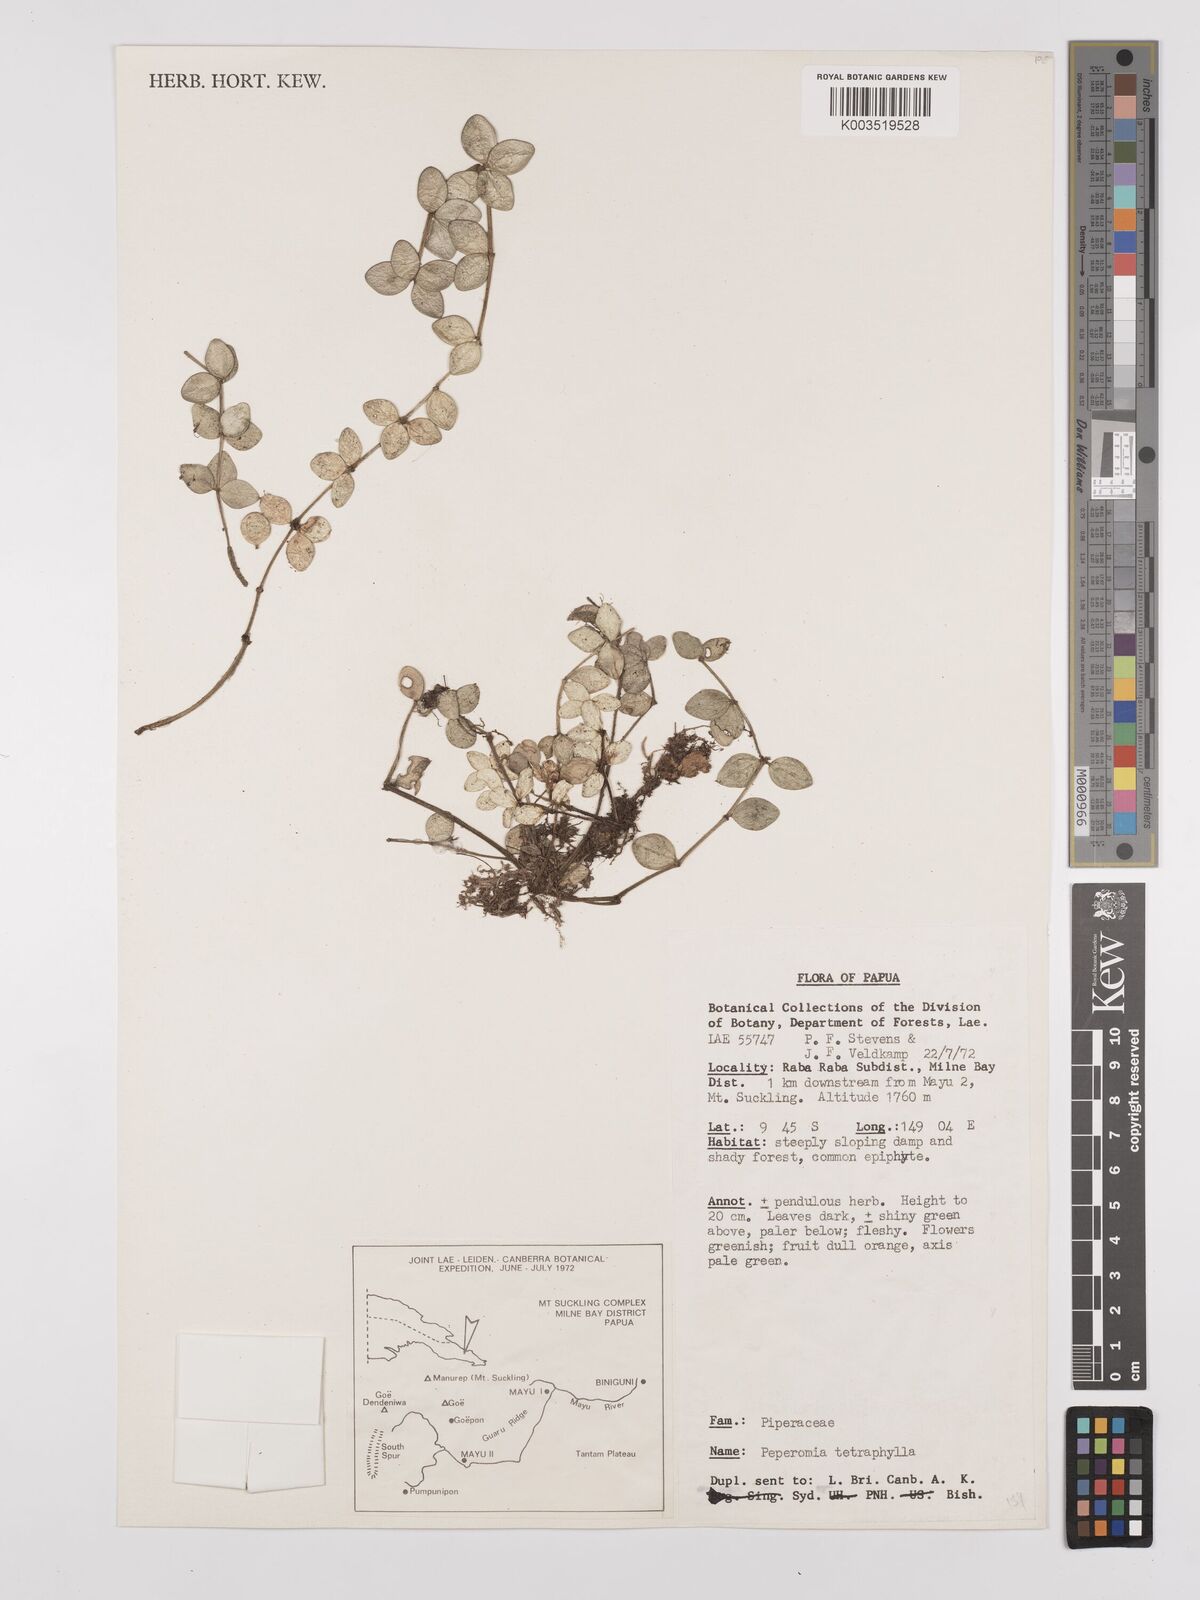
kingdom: Plantae
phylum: Tracheophyta
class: Magnoliopsida
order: Piperales
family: Piperaceae
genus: Peperomia
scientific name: Peperomia tetraphylla
